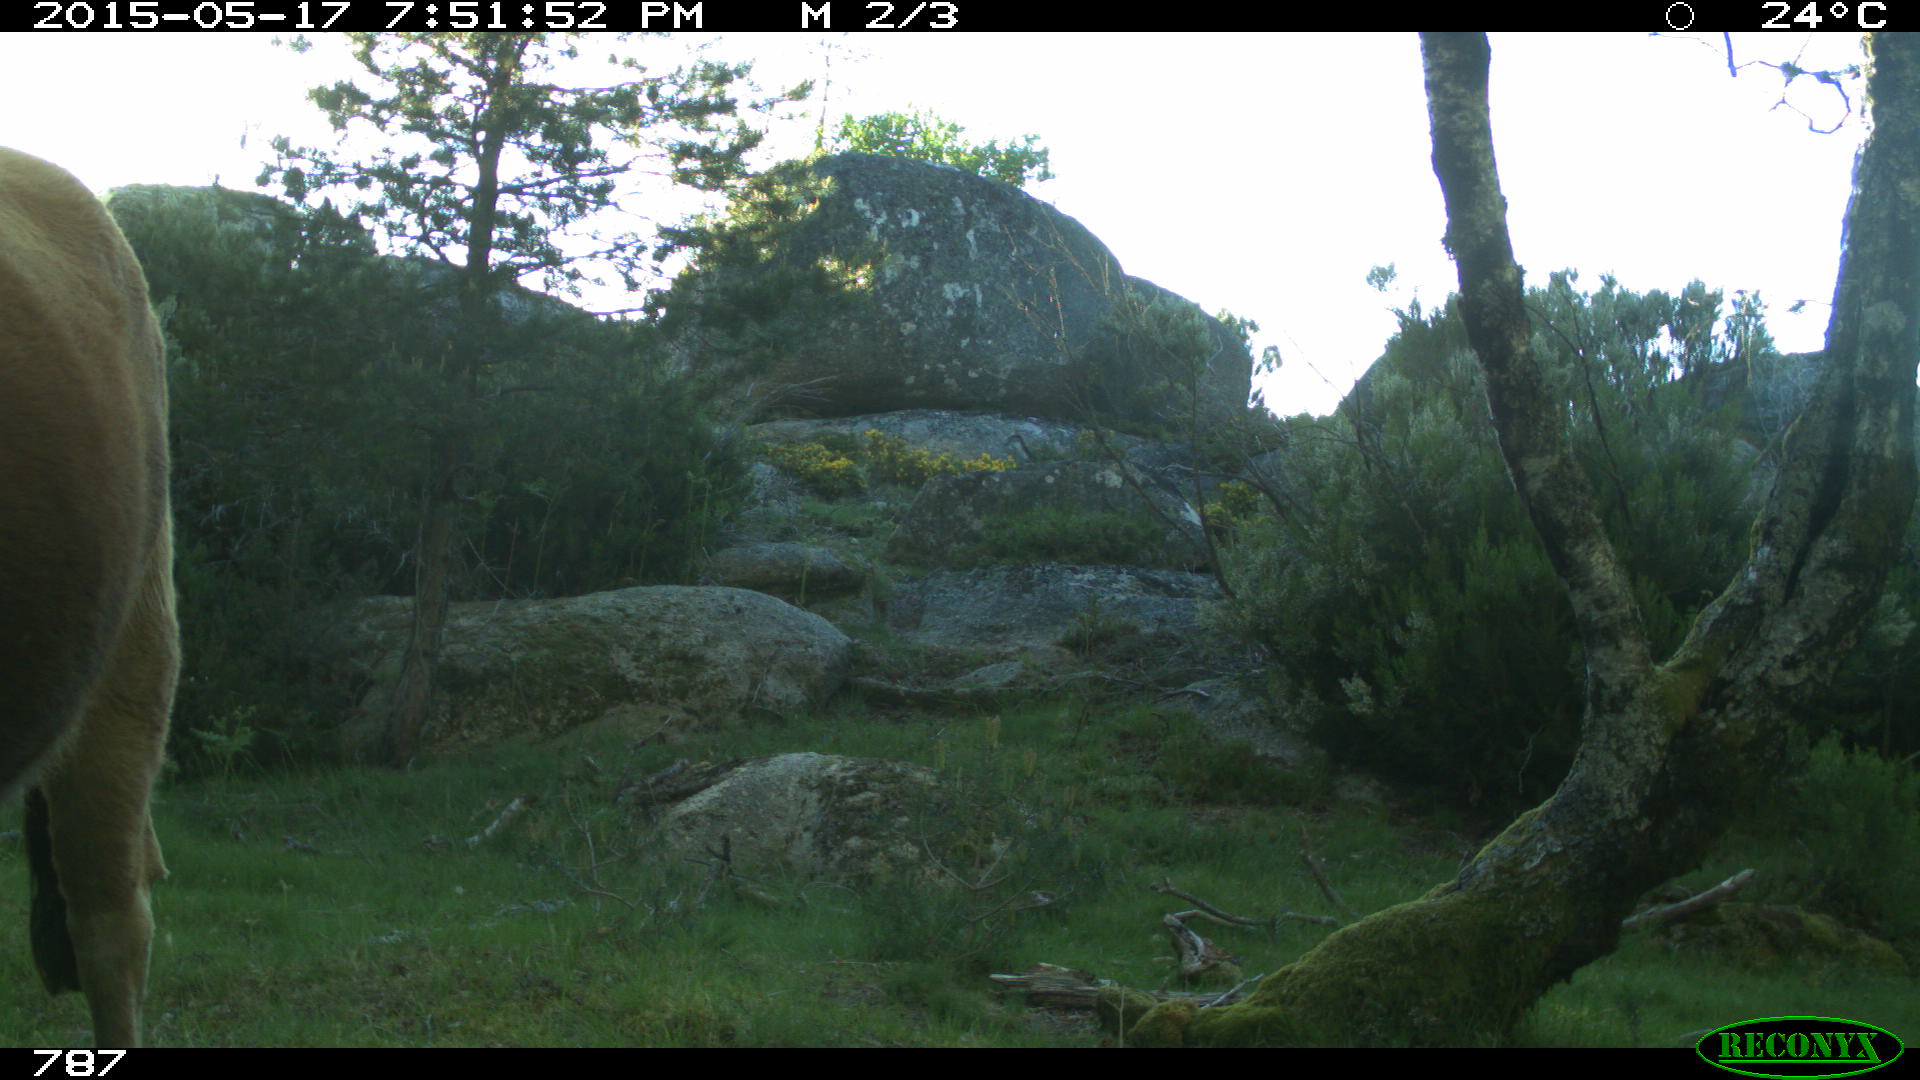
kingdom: Animalia
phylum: Chordata
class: Mammalia
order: Artiodactyla
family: Bovidae
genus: Bos
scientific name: Bos taurus
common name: Domesticated cattle
